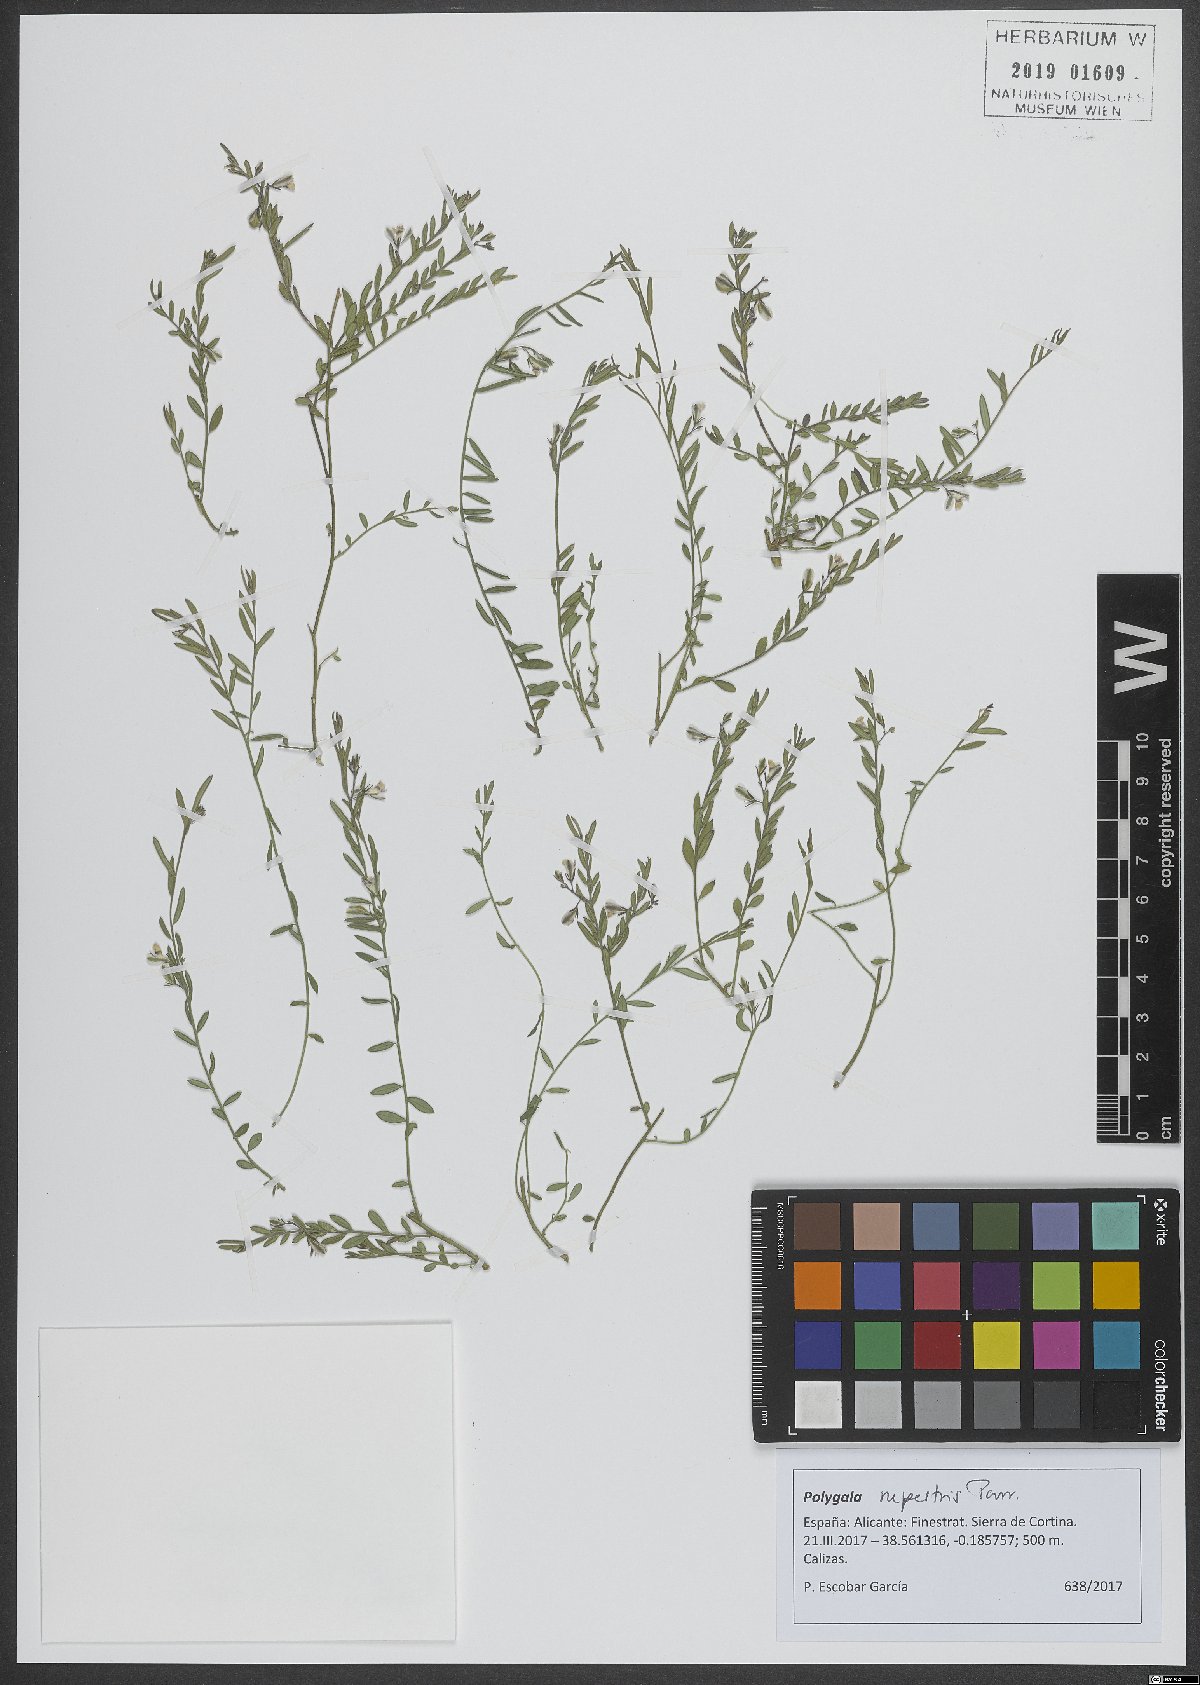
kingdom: Plantae
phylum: Tracheophyta
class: Magnoliopsida
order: Fabales
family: Polygalaceae
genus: Polygala
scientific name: Polygala rupestris
